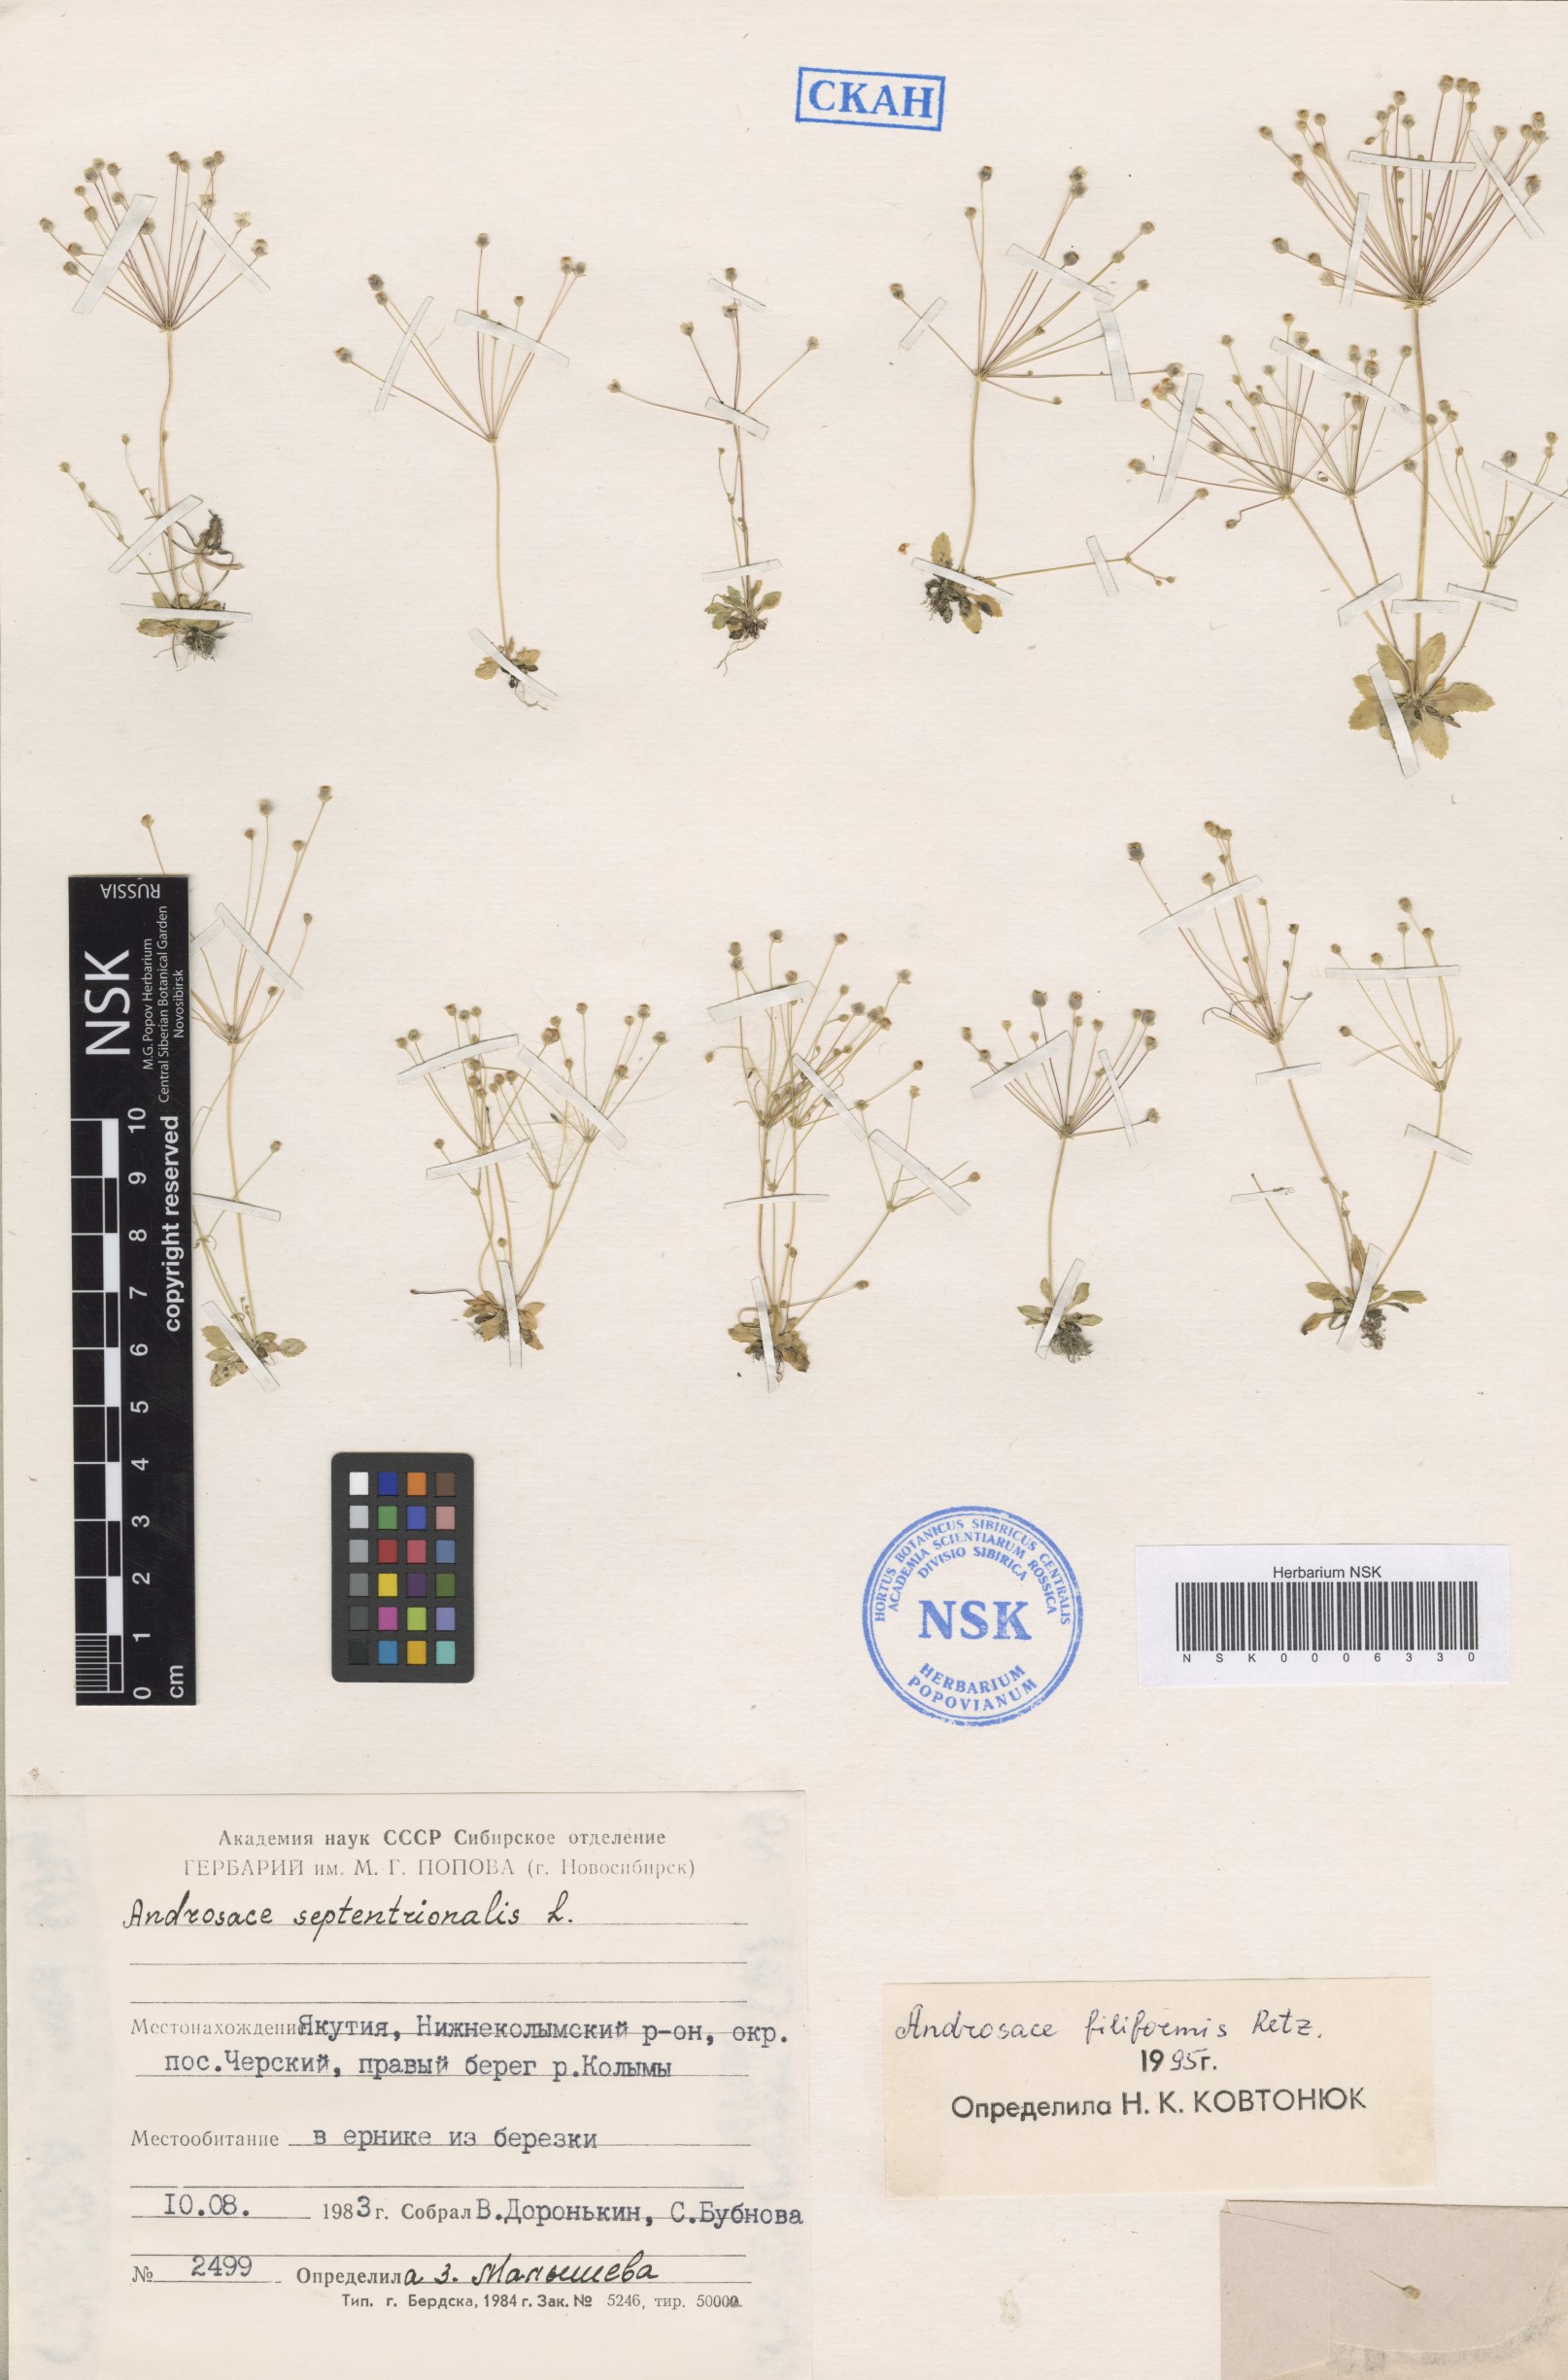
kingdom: Plantae
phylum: Tracheophyta
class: Magnoliopsida
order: Ericales
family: Primulaceae
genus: Androsace
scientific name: Androsace filiformis
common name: Filiform rock jasmine
